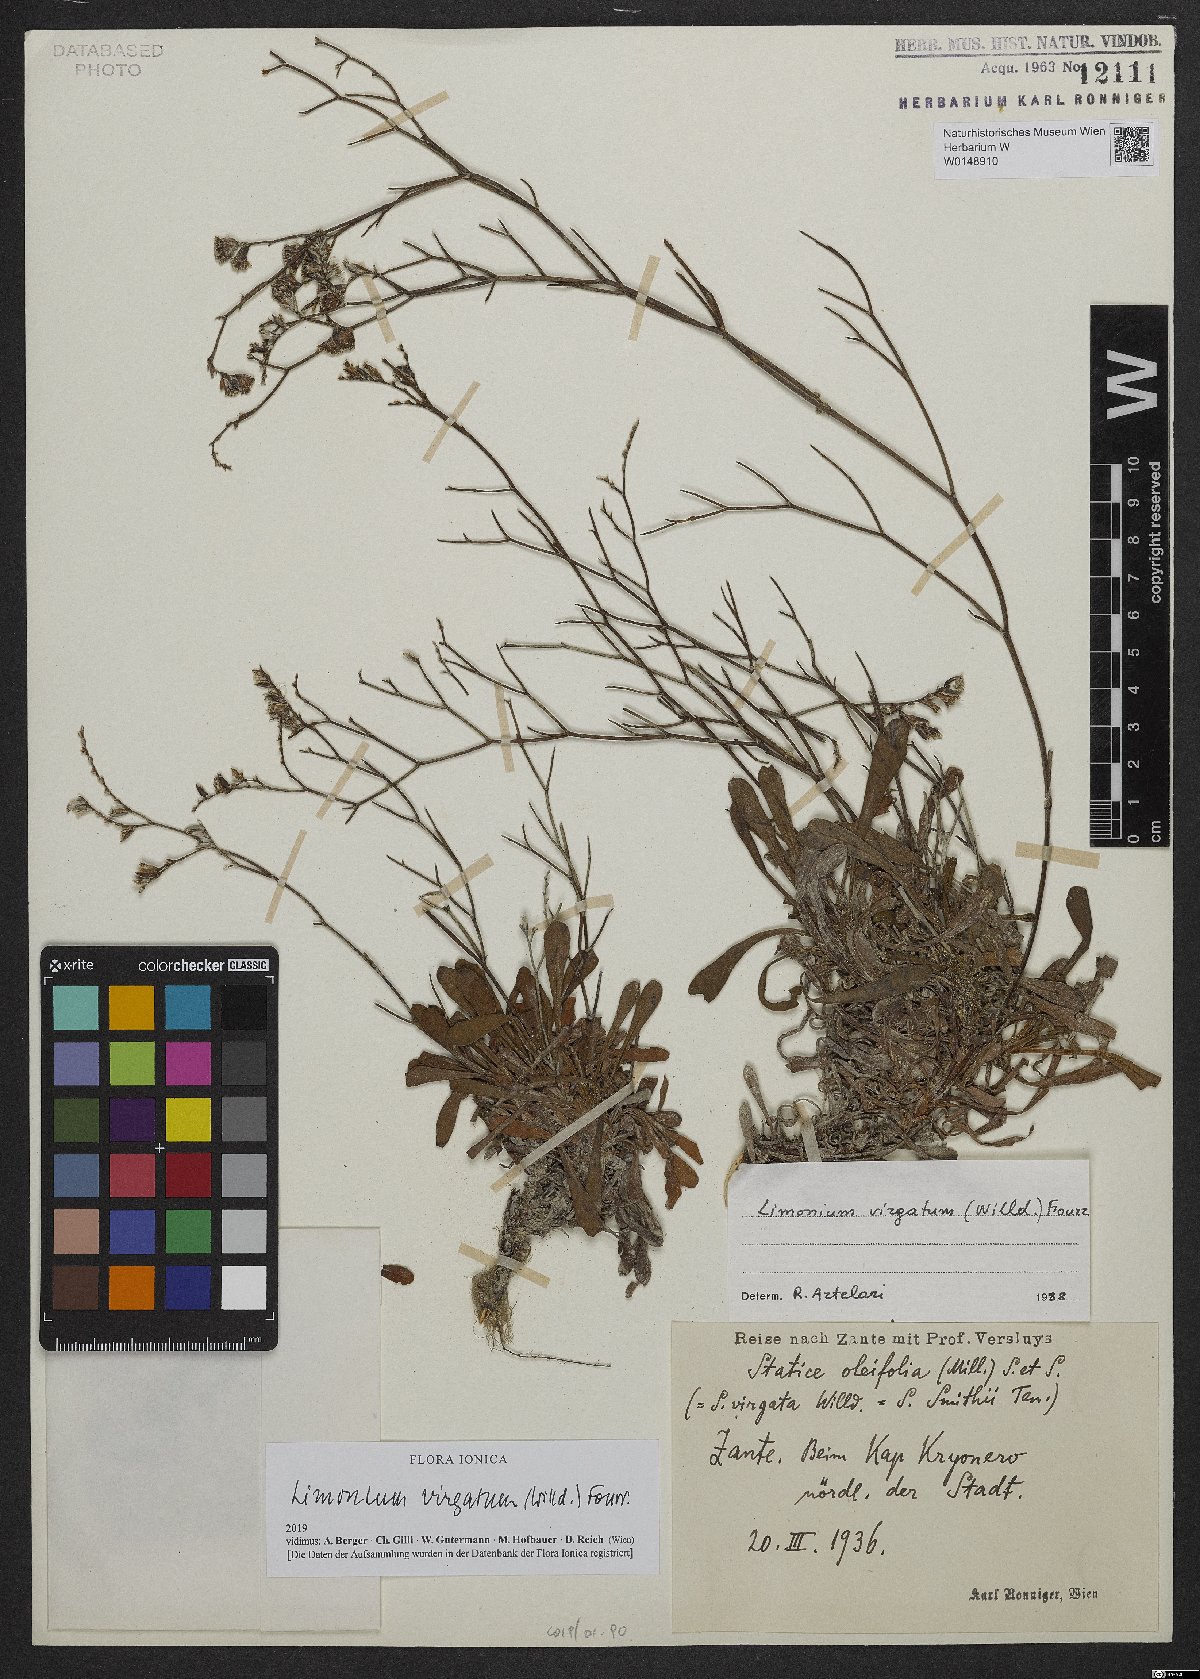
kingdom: Plantae
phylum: Tracheophyta
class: Magnoliopsida
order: Caryophyllales
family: Plumbaginaceae
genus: Limonium
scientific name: Limonium virgatum
